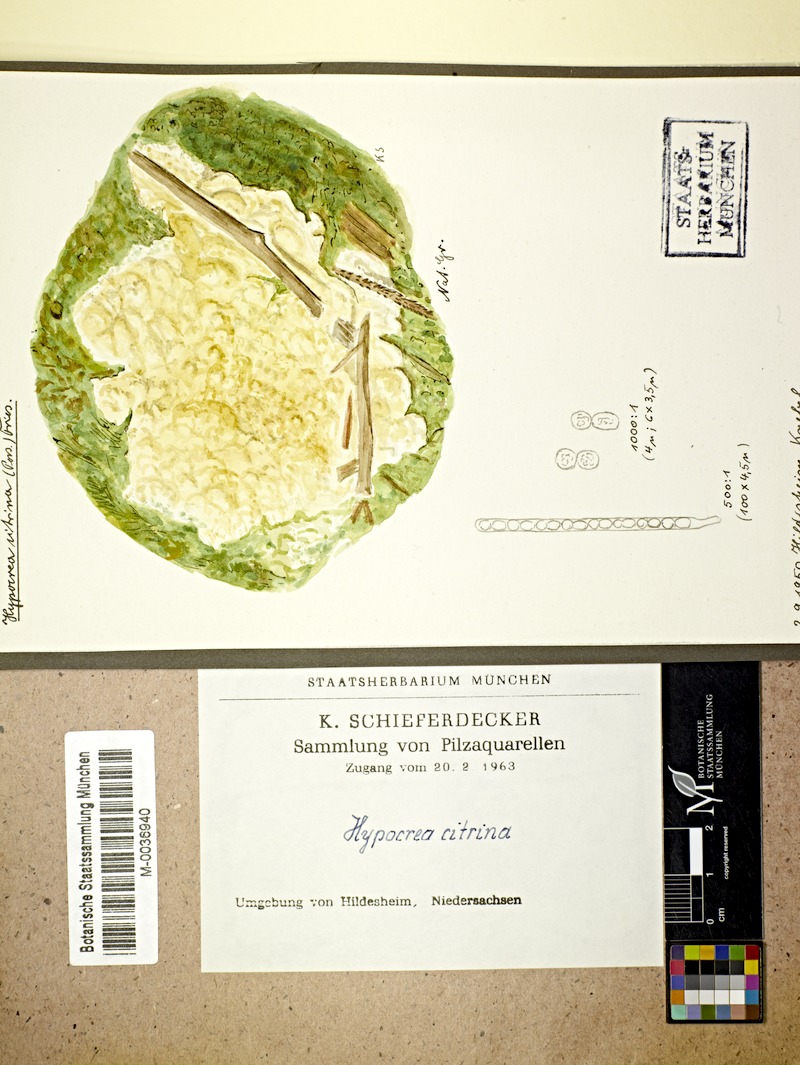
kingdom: Fungi
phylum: Ascomycota
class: Sordariomycetes
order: Hypocreales
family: Hypocreaceae
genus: Trichoderma
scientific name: Trichoderma citrinum
